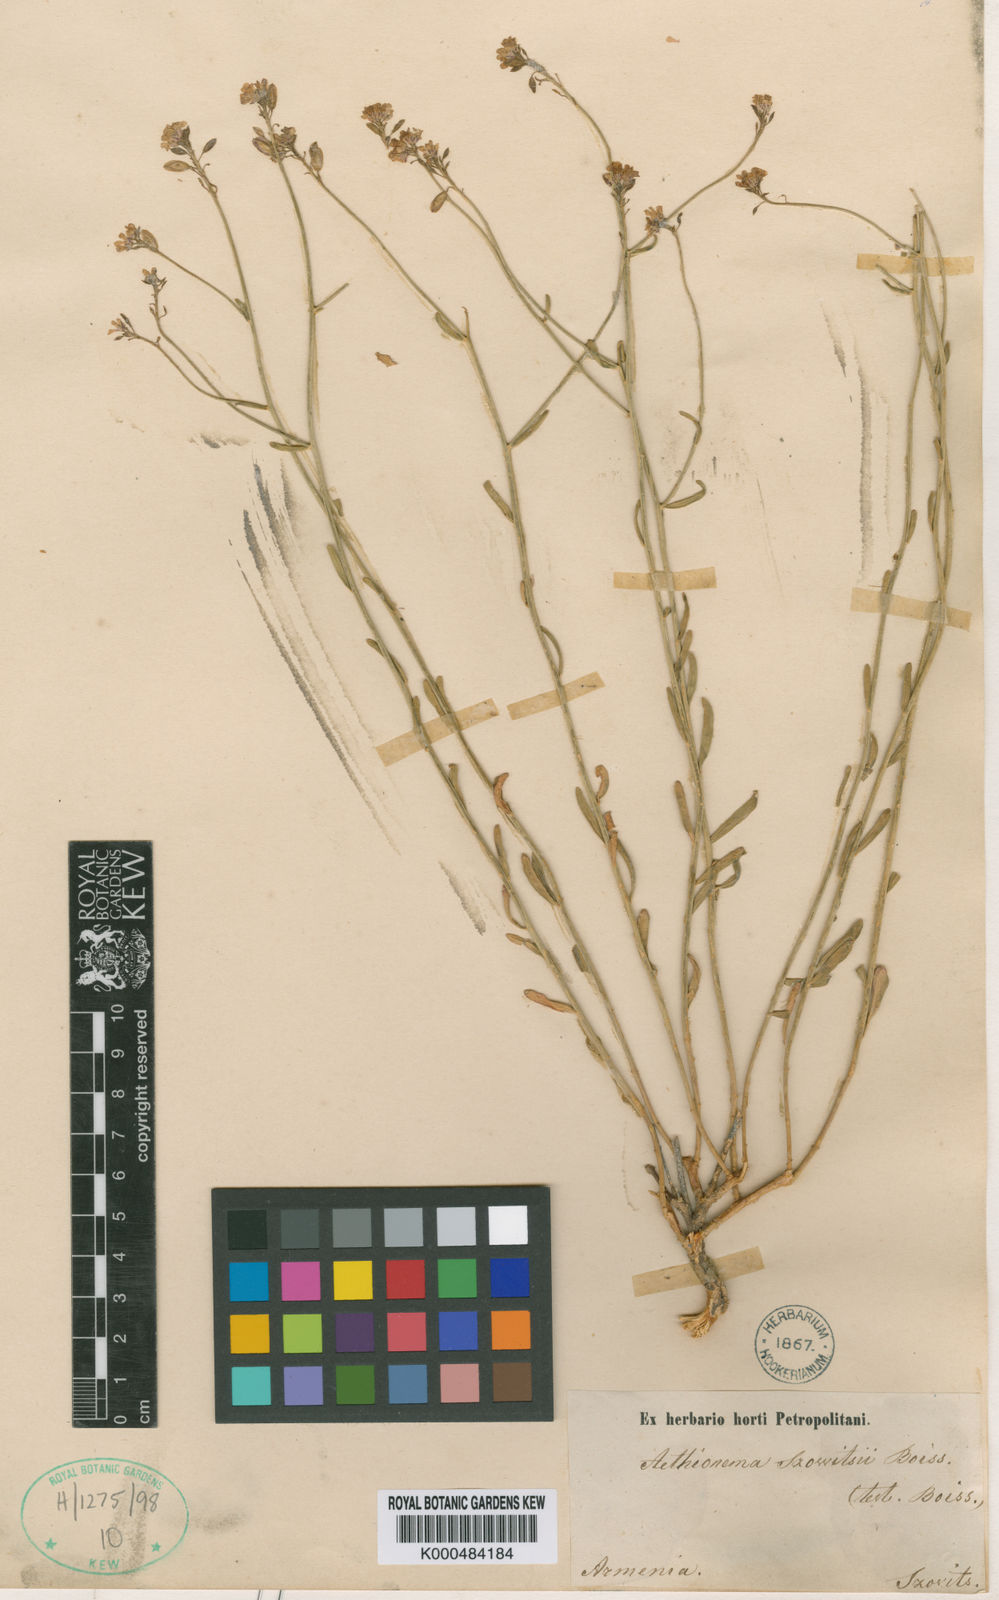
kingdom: Plantae
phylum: Tracheophyta
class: Magnoliopsida
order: Brassicales
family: Brassicaceae
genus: Aethionema
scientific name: Aethionema virgatum
